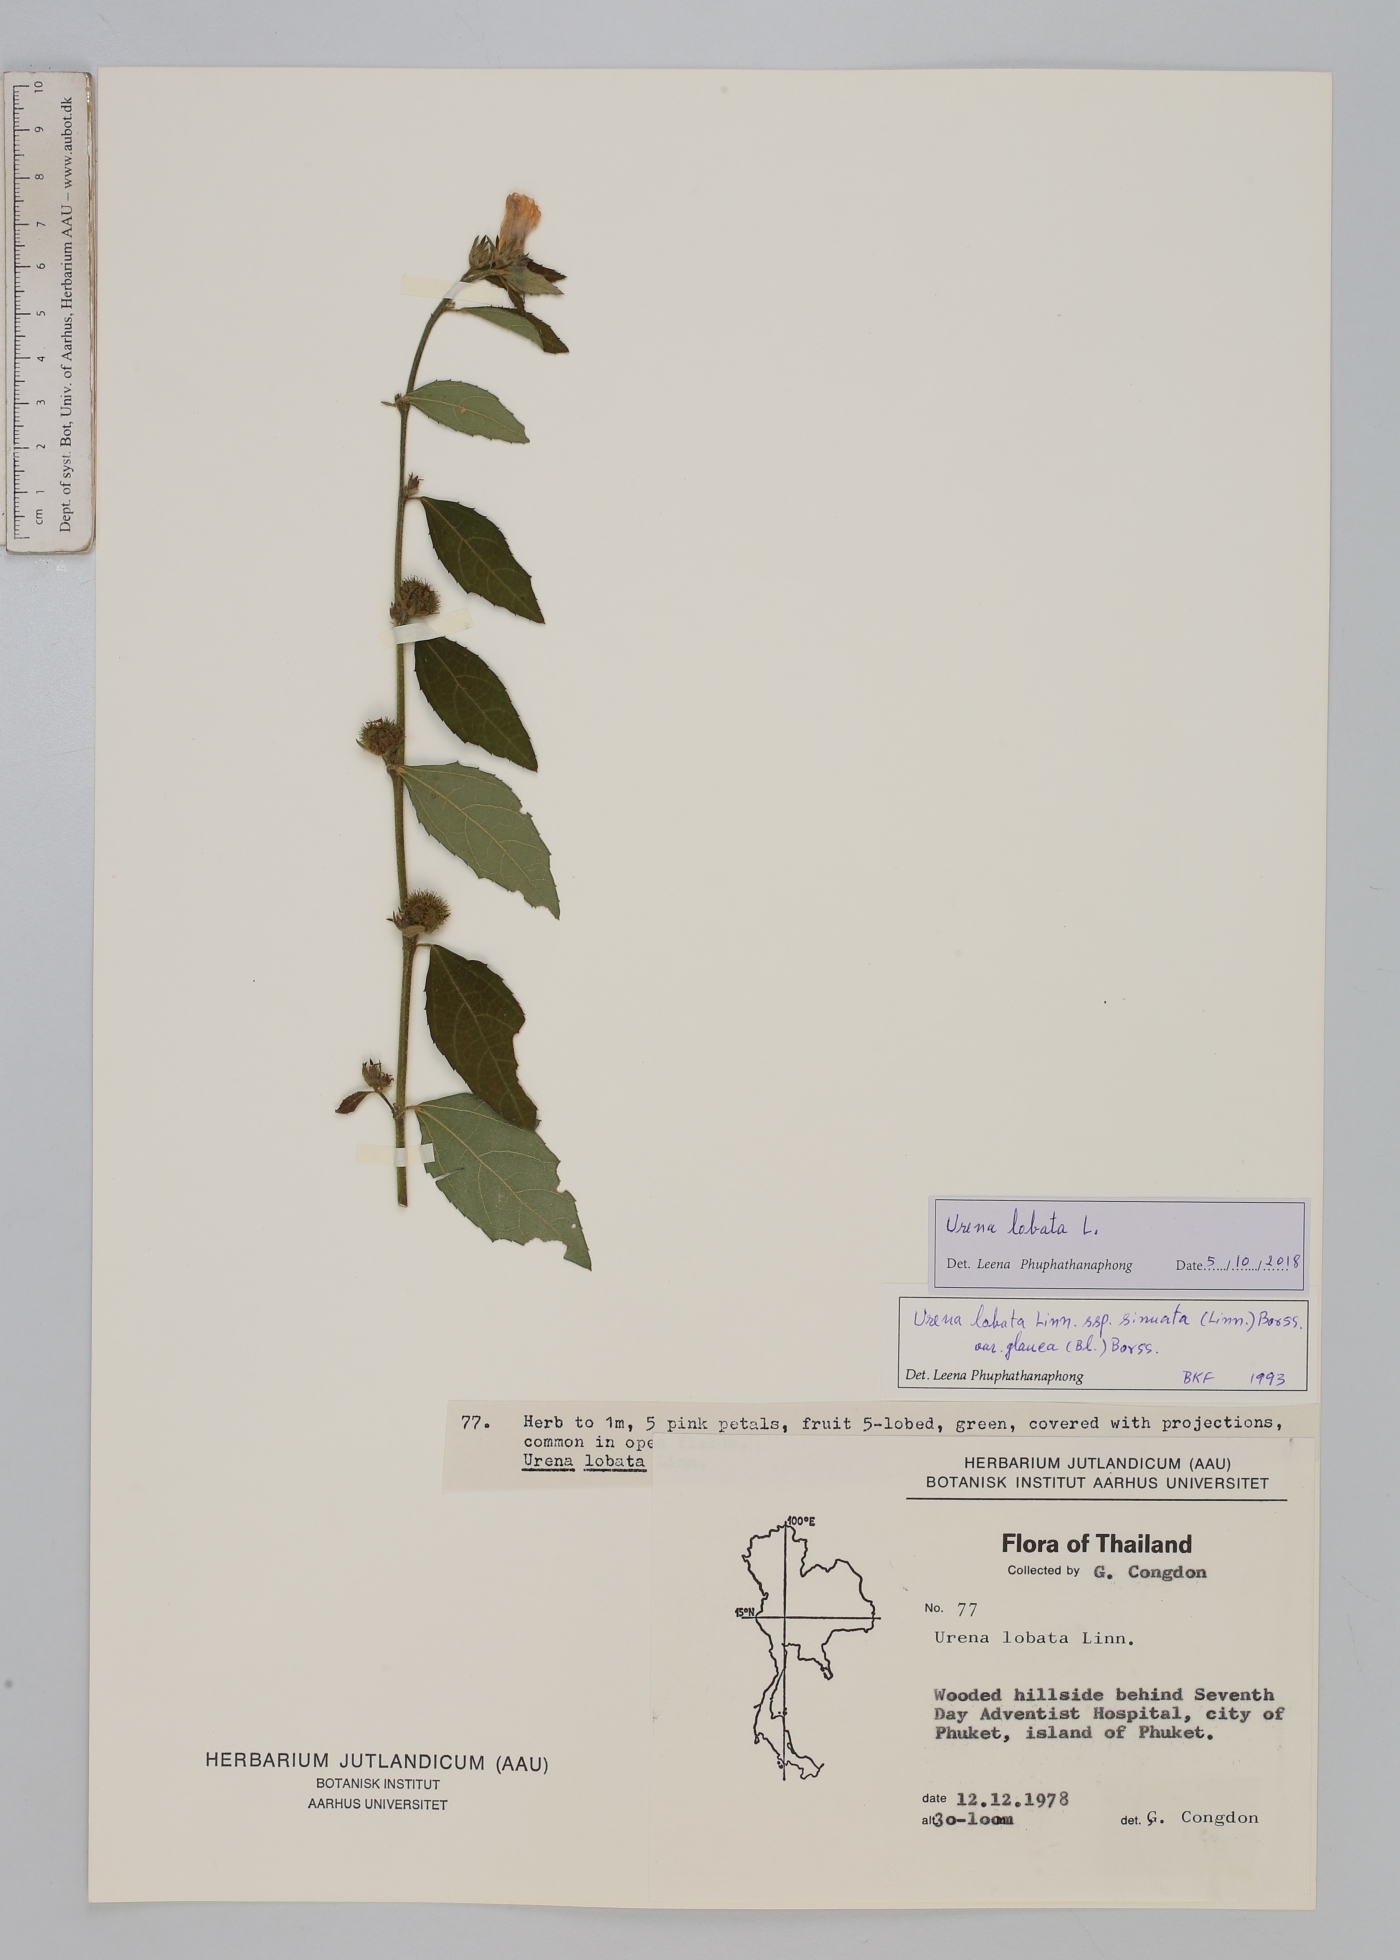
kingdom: Plantae
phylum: Tracheophyta
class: Magnoliopsida
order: Malvales
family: Malvaceae
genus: Urena
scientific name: Urena lobata
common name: Caesarweed
